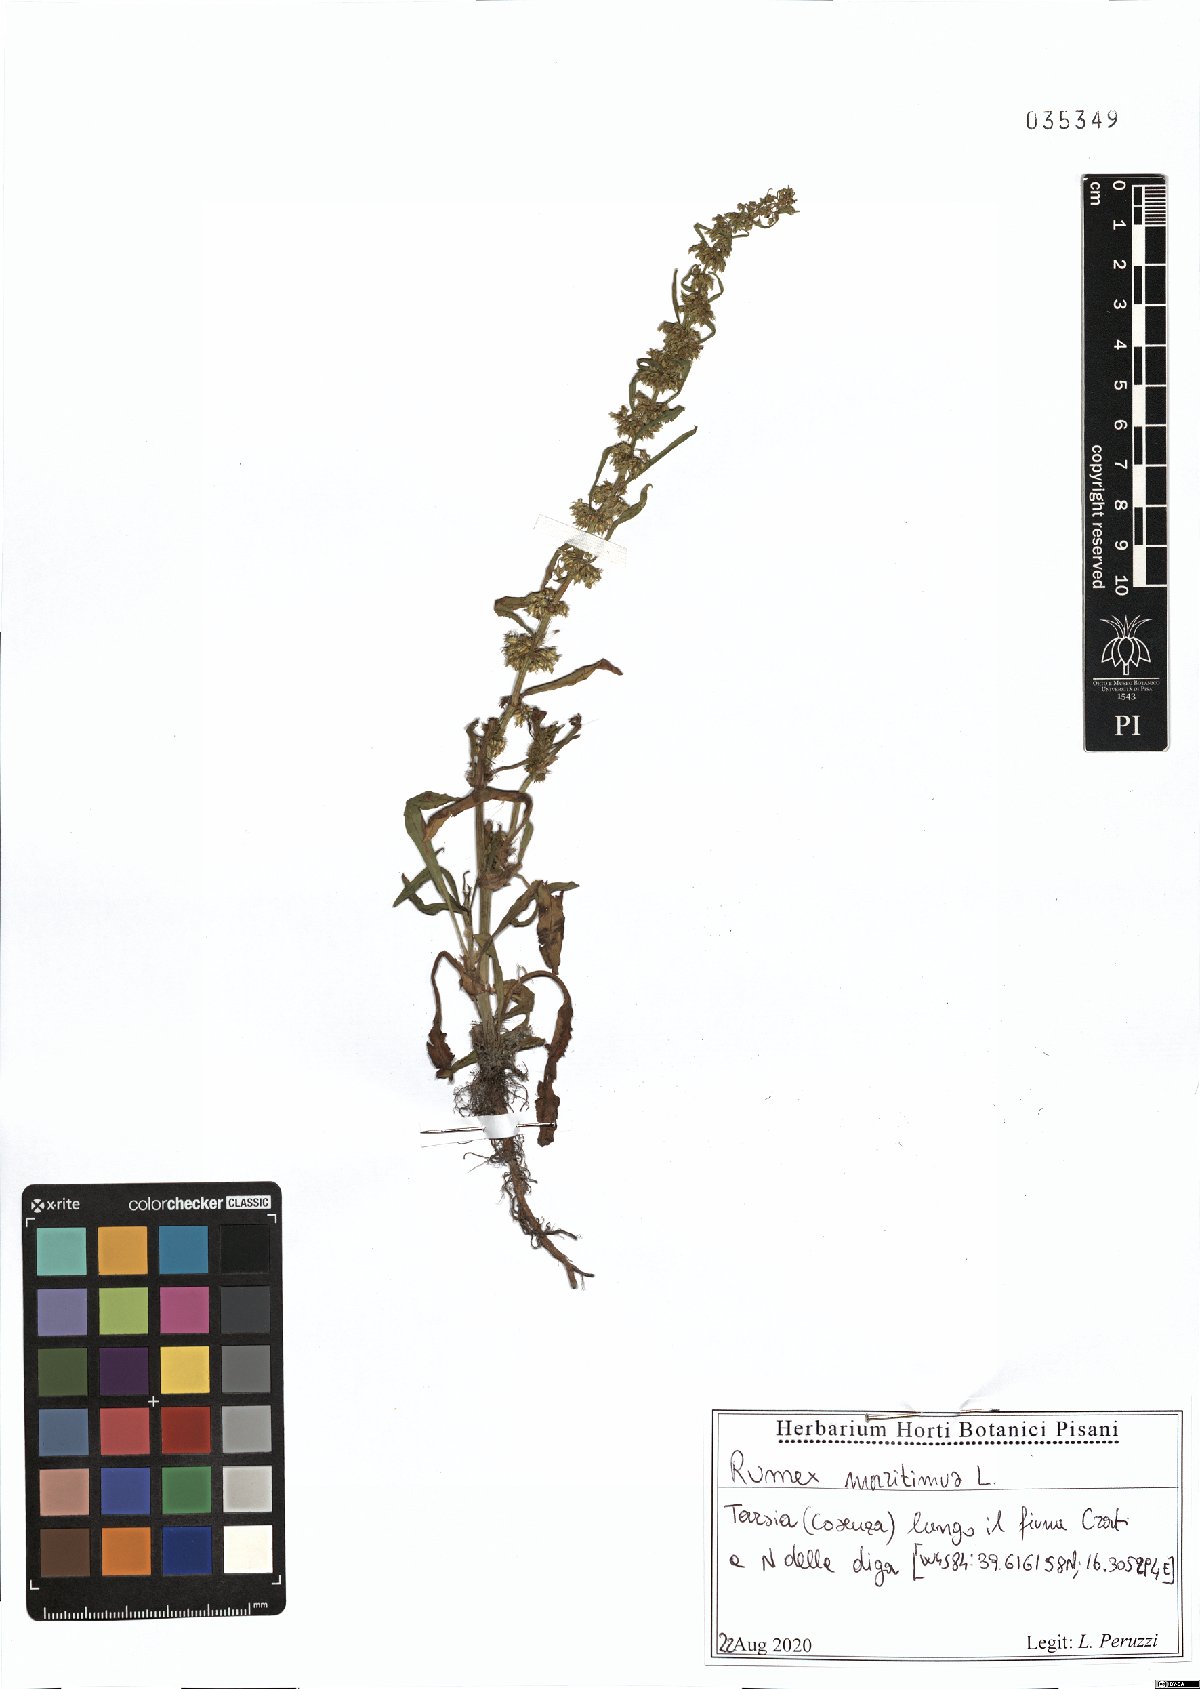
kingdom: Plantae
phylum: Tracheophyta
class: Magnoliopsida
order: Caryophyllales
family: Polygonaceae
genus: Rumex
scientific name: Rumex maritimus
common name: Golden dock
